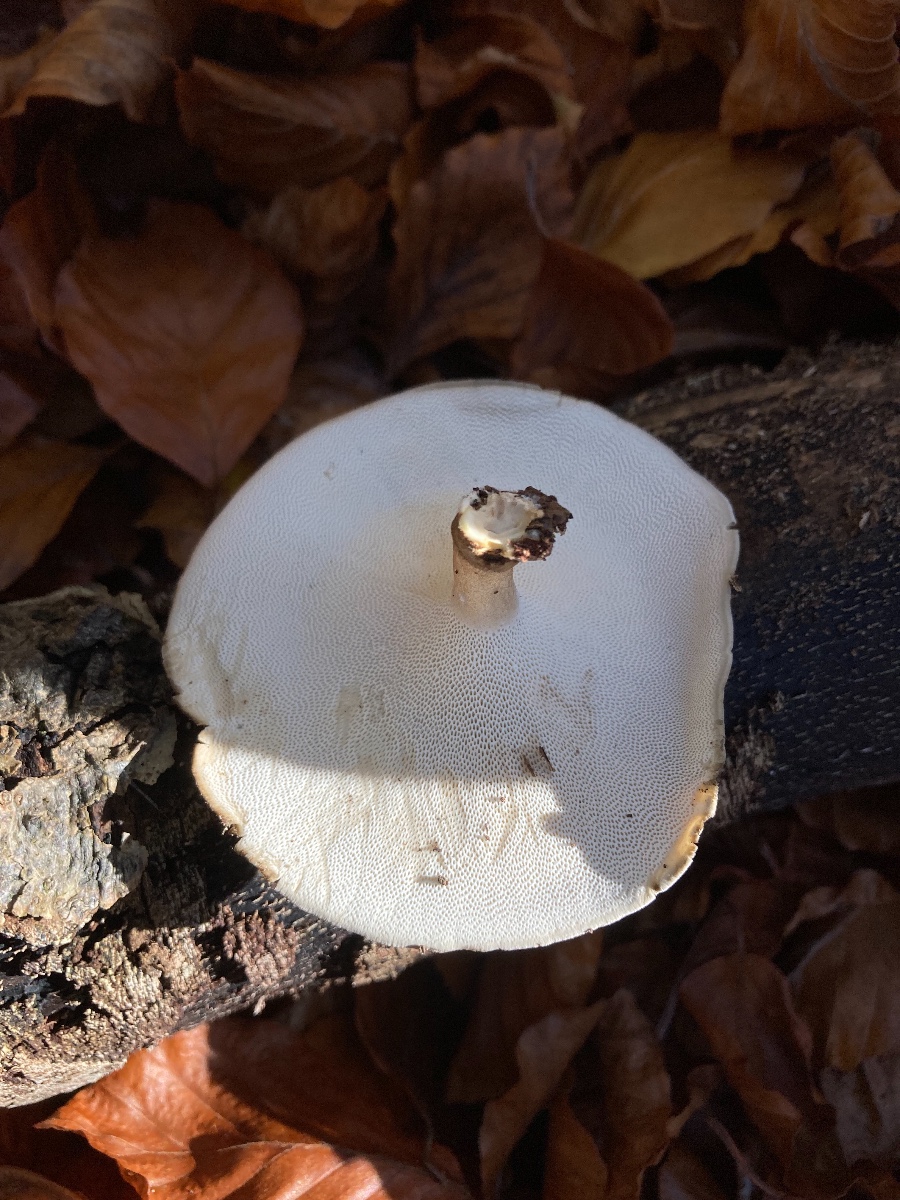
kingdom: Fungi
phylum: Basidiomycota
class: Agaricomycetes
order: Polyporales
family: Polyporaceae
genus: Lentinus
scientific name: Lentinus brumalis
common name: vinter-stilkporesvamp
